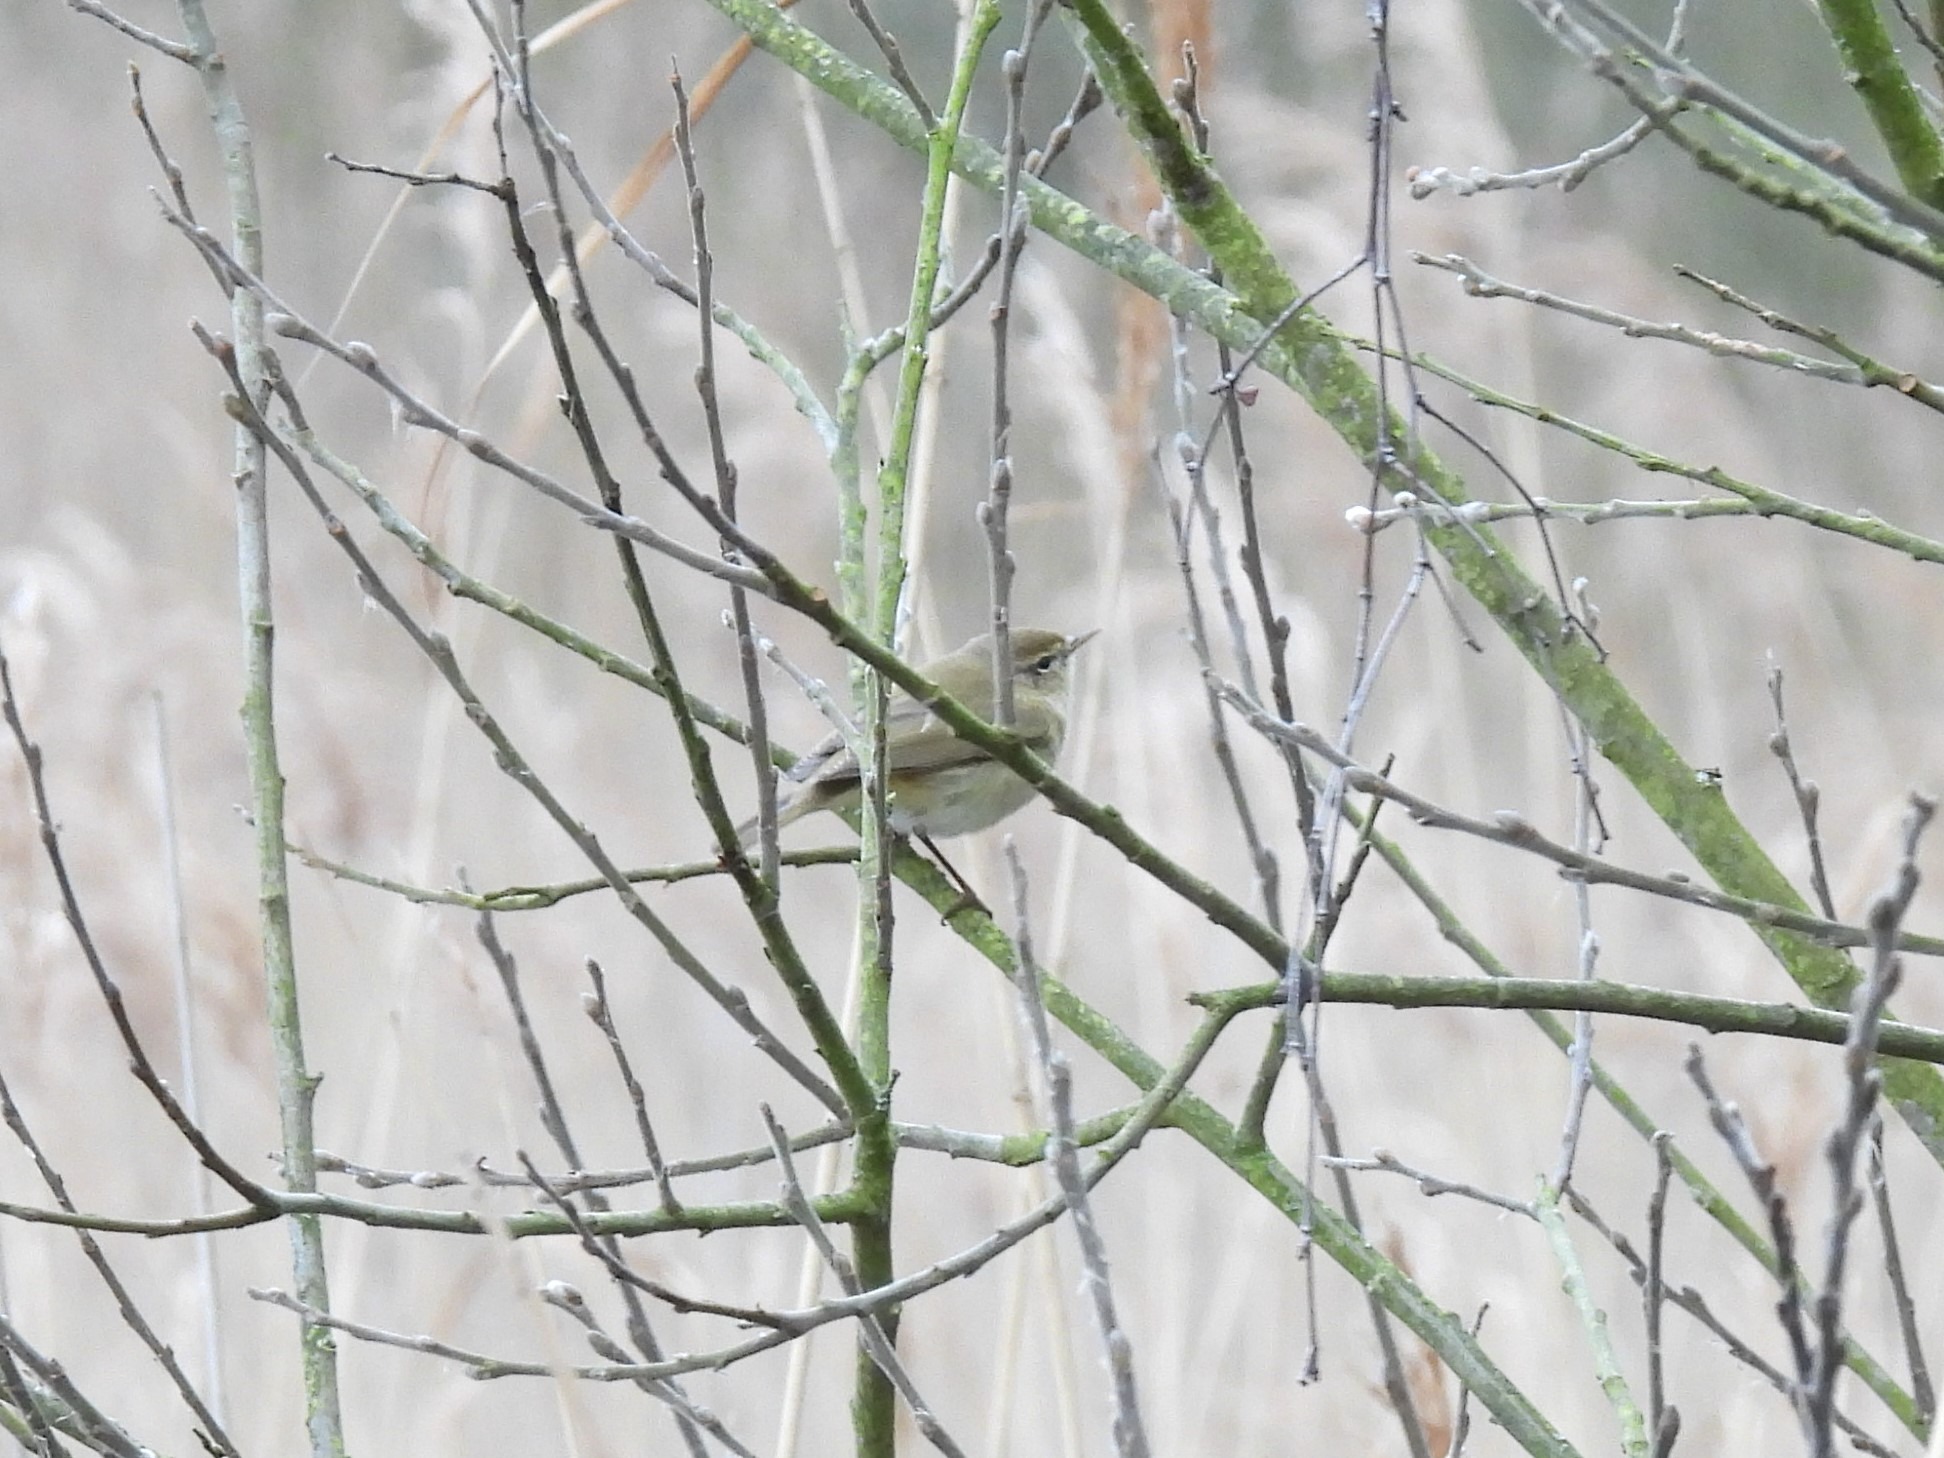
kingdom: Animalia
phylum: Chordata
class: Aves
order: Passeriformes
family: Phylloscopidae
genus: Phylloscopus
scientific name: Phylloscopus collybita
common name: Gransanger
